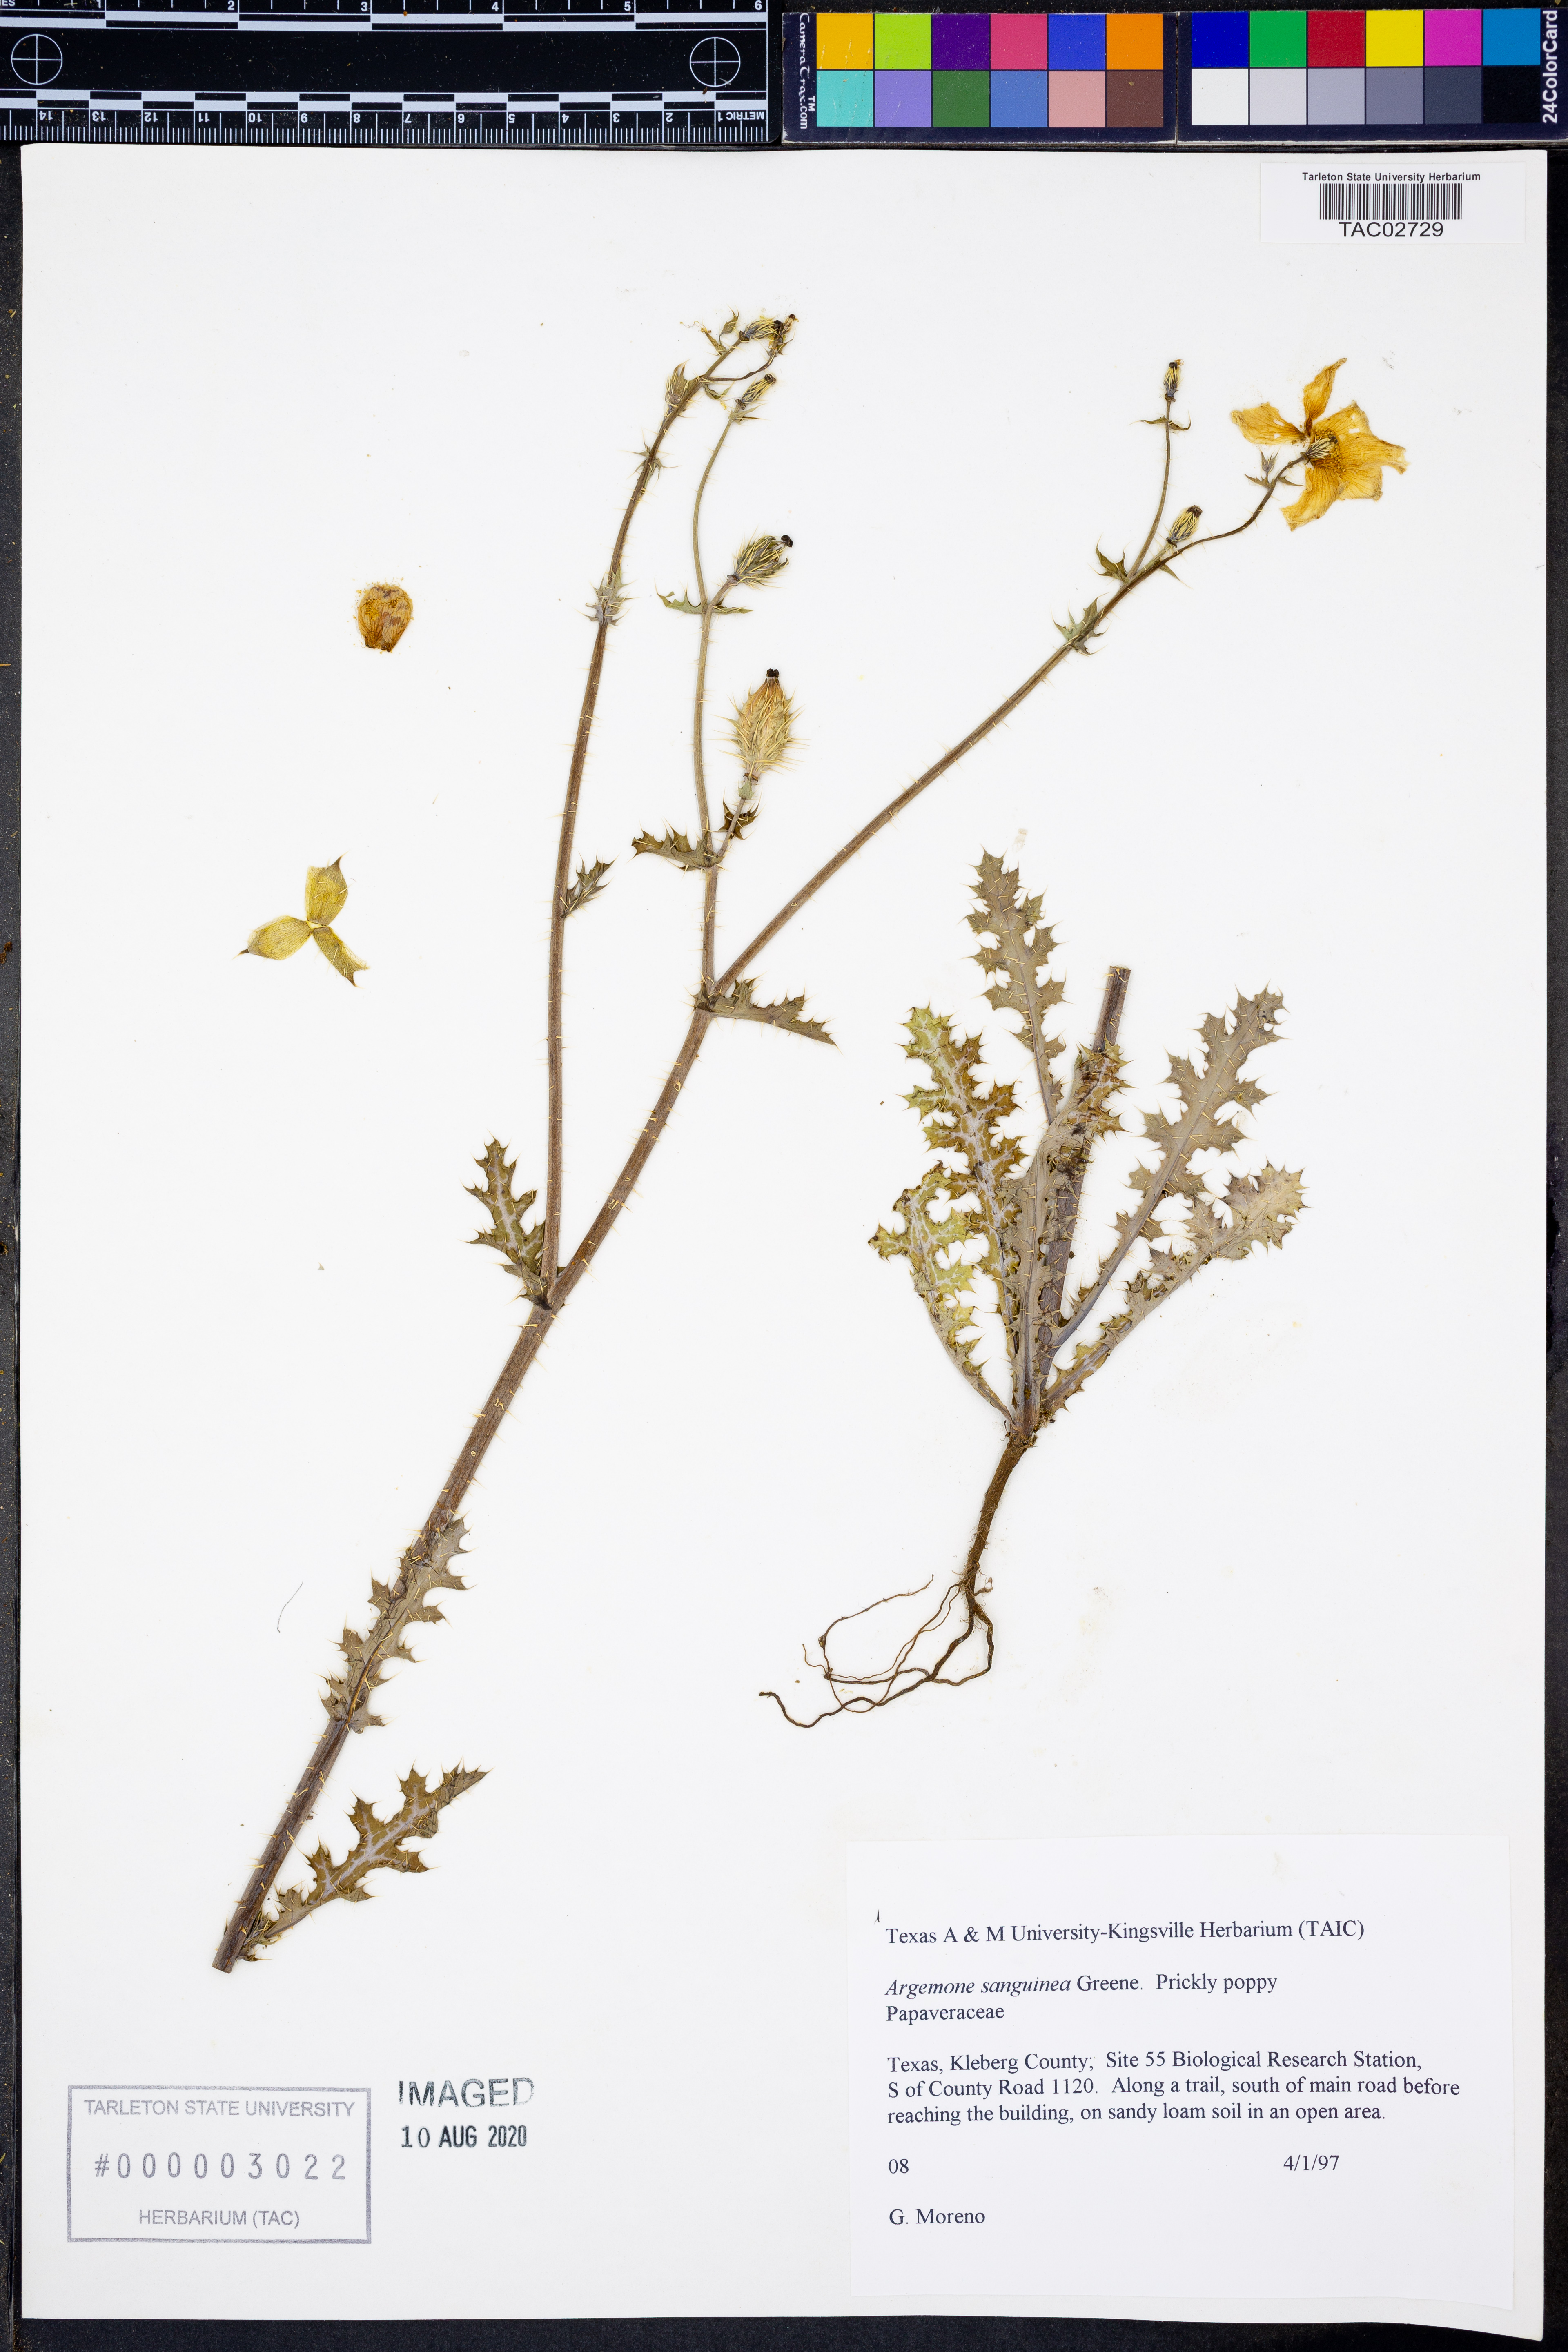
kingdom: Plantae
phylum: Tracheophyta
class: Magnoliopsida
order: Ranunculales
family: Papaveraceae
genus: Argemone
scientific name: Argemone sanguinea
